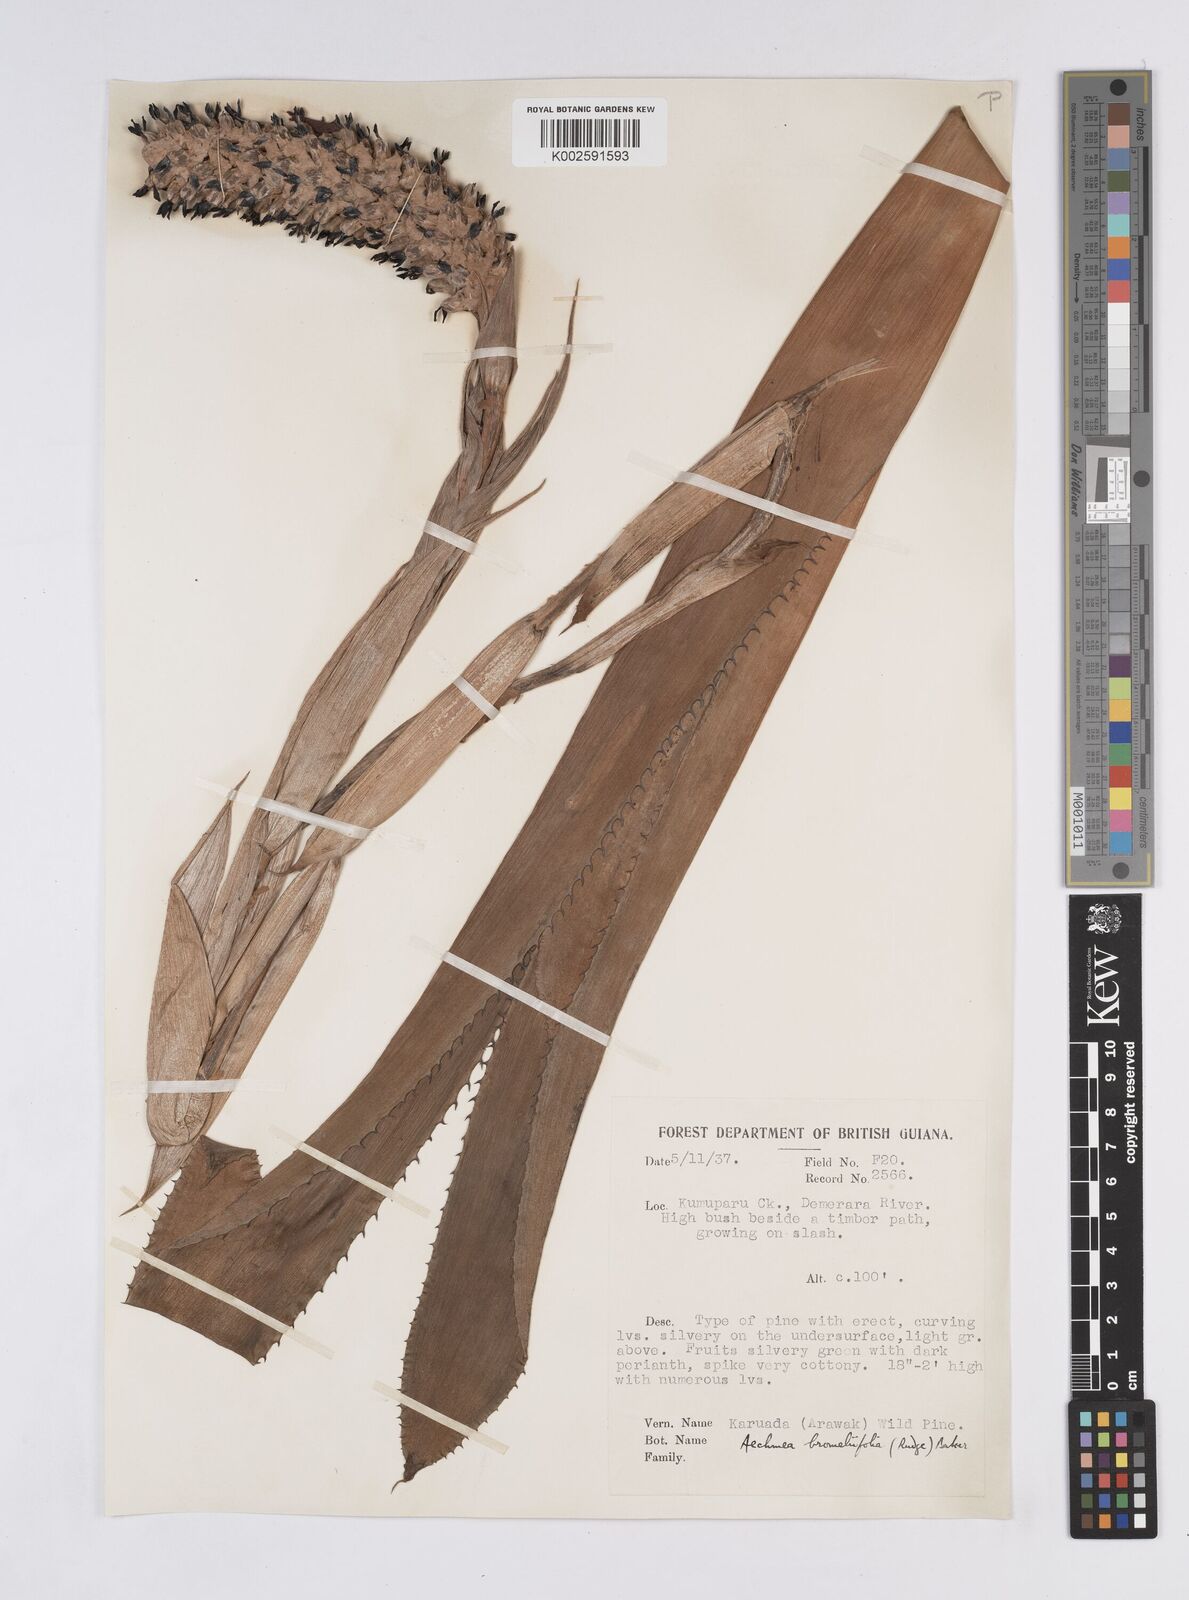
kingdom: Plantae
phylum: Tracheophyta
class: Liliopsida
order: Poales
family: Bromeliaceae
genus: Aechmea
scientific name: Aechmea bromeliifolia
